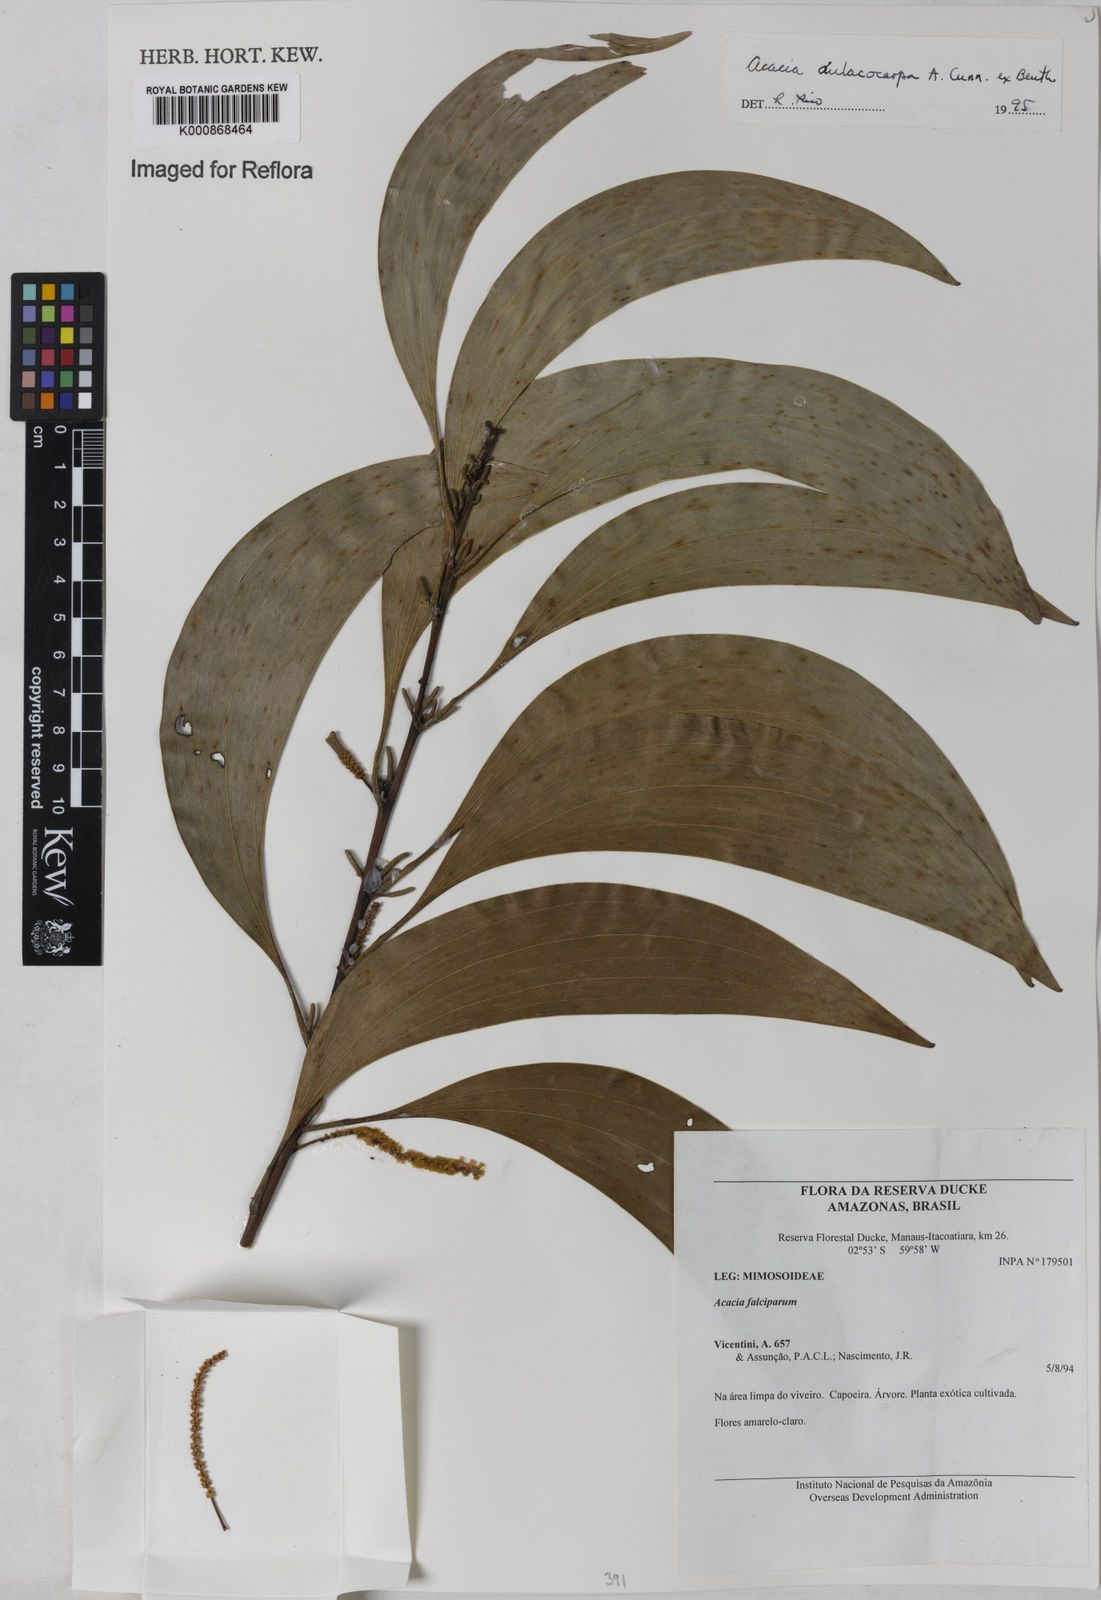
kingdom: Plantae
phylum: Tracheophyta
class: Magnoliopsida
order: Fabales
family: Fabaceae
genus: Acacia
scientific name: Acacia
